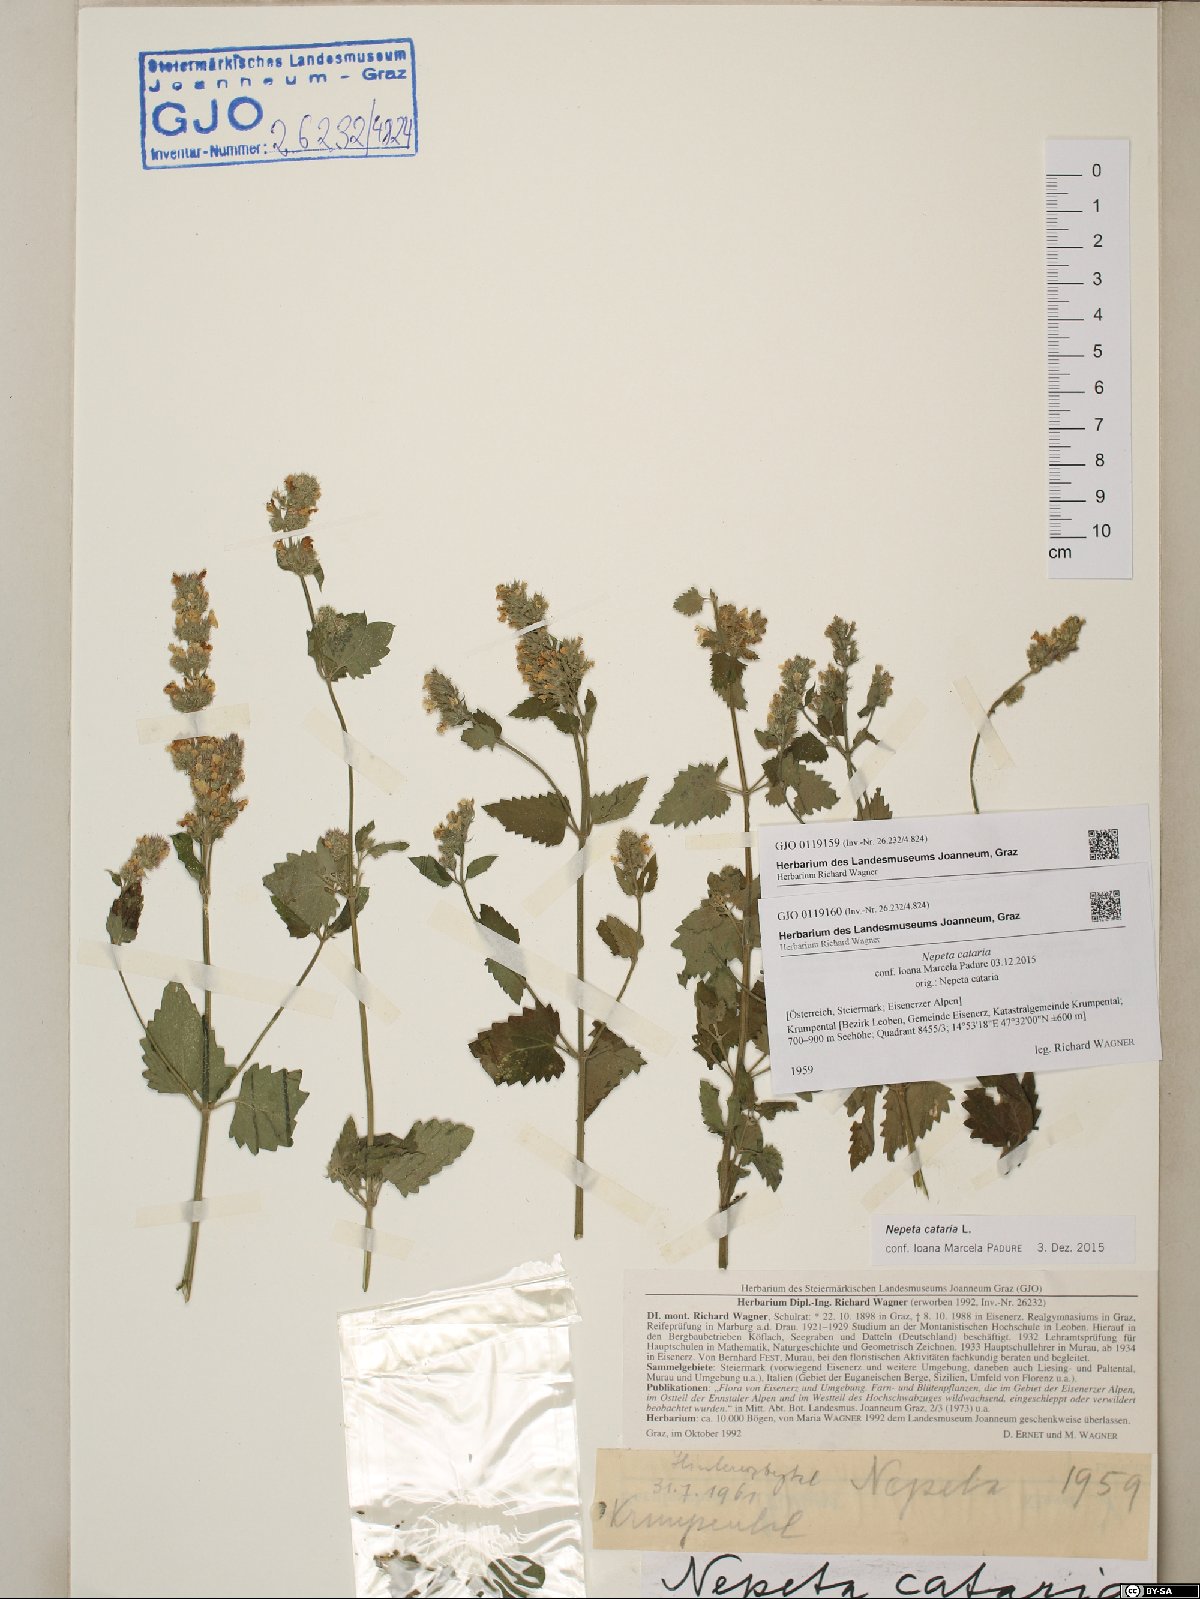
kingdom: Plantae
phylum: Tracheophyta
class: Magnoliopsida
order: Lamiales
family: Lamiaceae
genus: Nepeta
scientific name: Nepeta cataria
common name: Catnip
